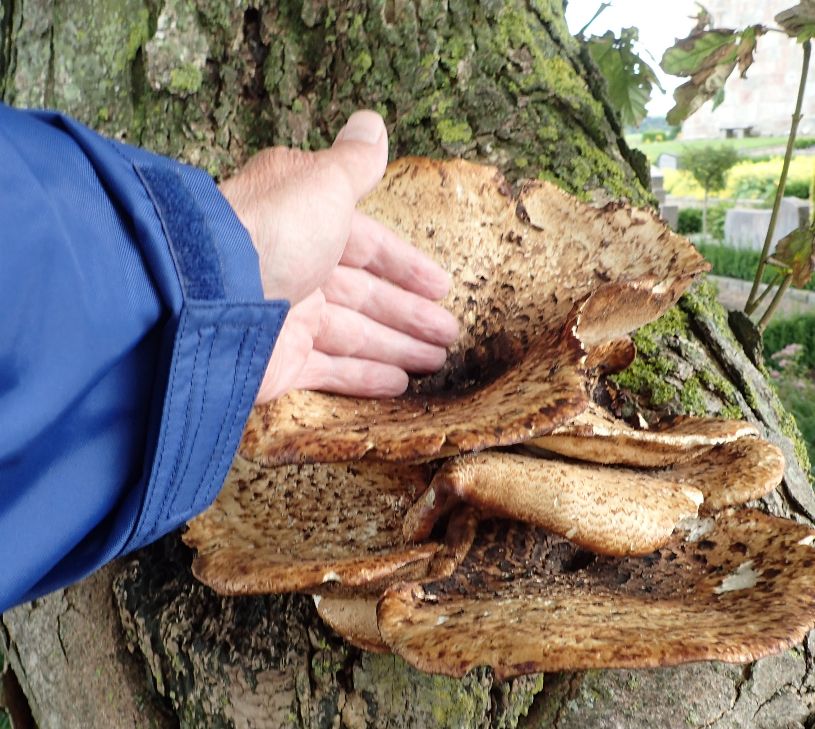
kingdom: Fungi
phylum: Basidiomycota
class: Agaricomycetes
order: Polyporales
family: Polyporaceae
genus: Cerioporus
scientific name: Cerioporus squamosus
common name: skællet stilkporesvamp
